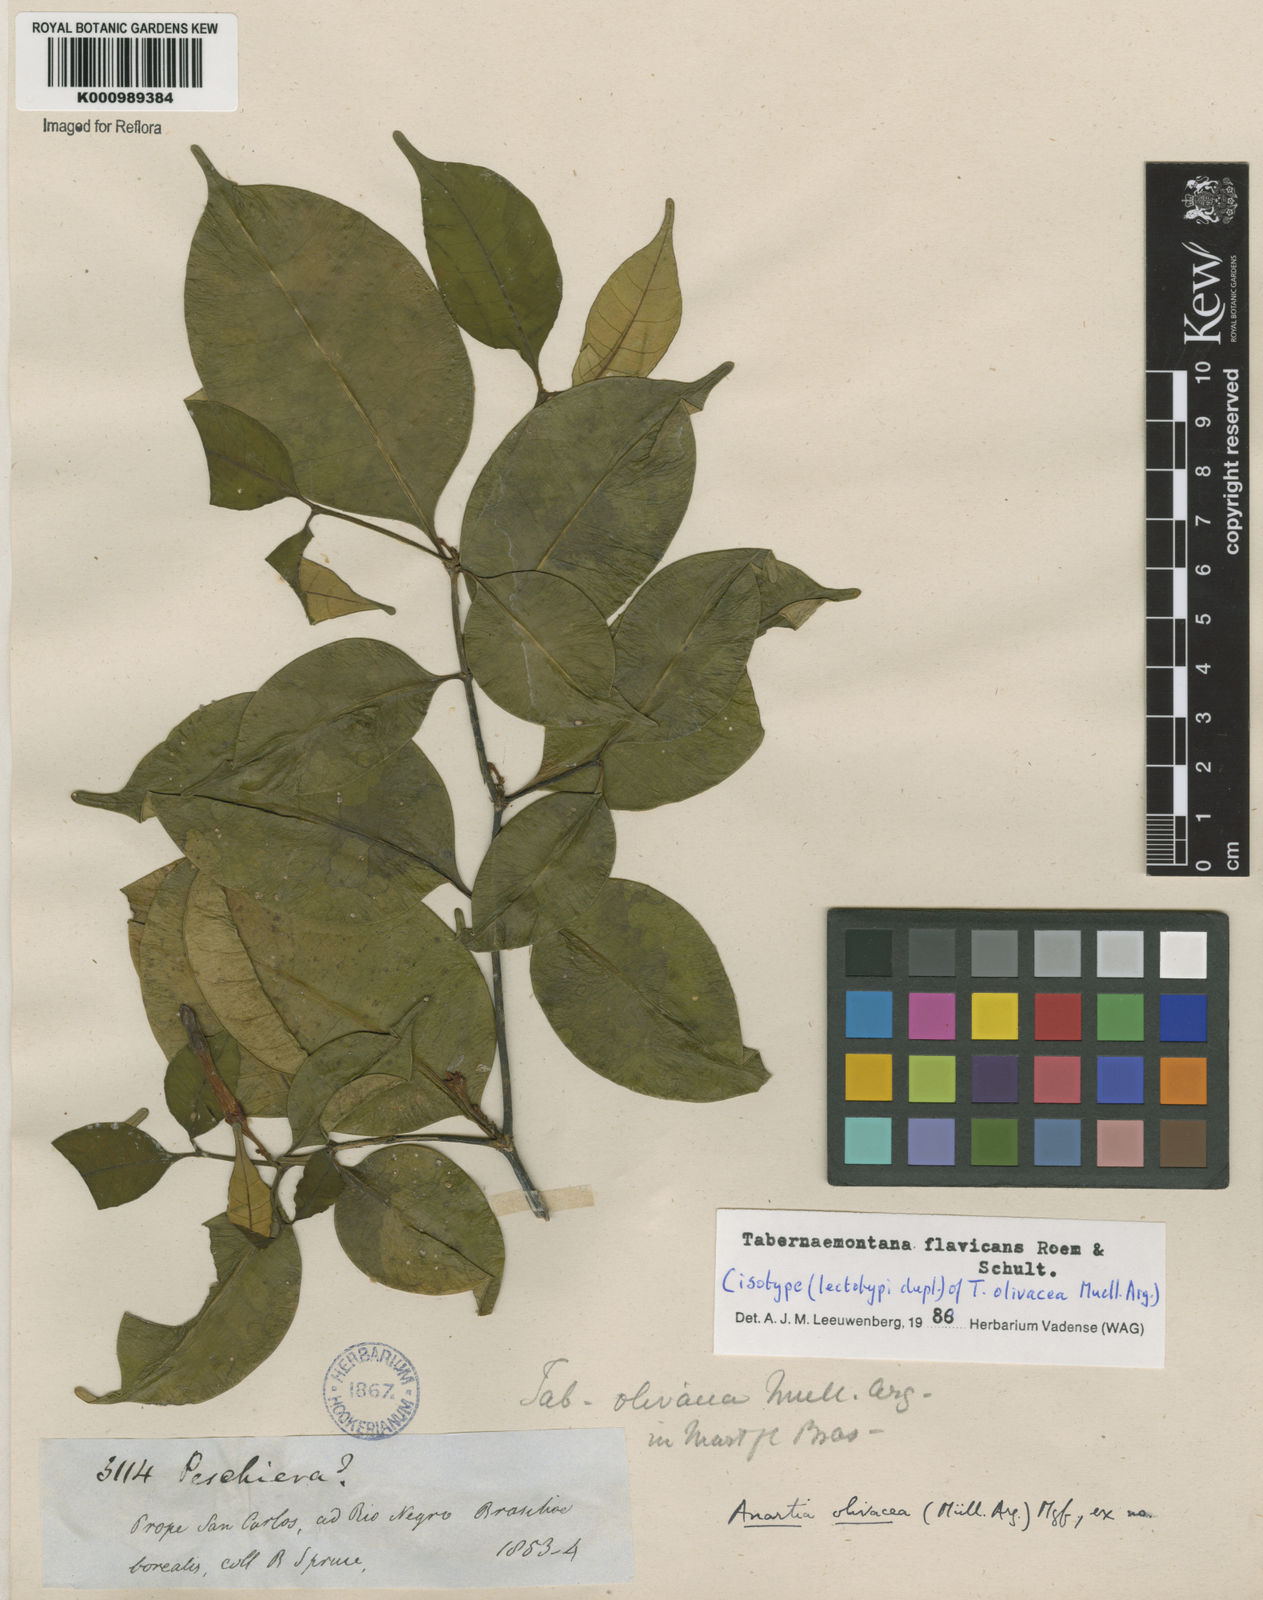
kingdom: Plantae
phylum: Tracheophyta
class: Magnoliopsida
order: Gentianales
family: Apocynaceae
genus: Tabernaemontana
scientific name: Tabernaemontana flavicans
